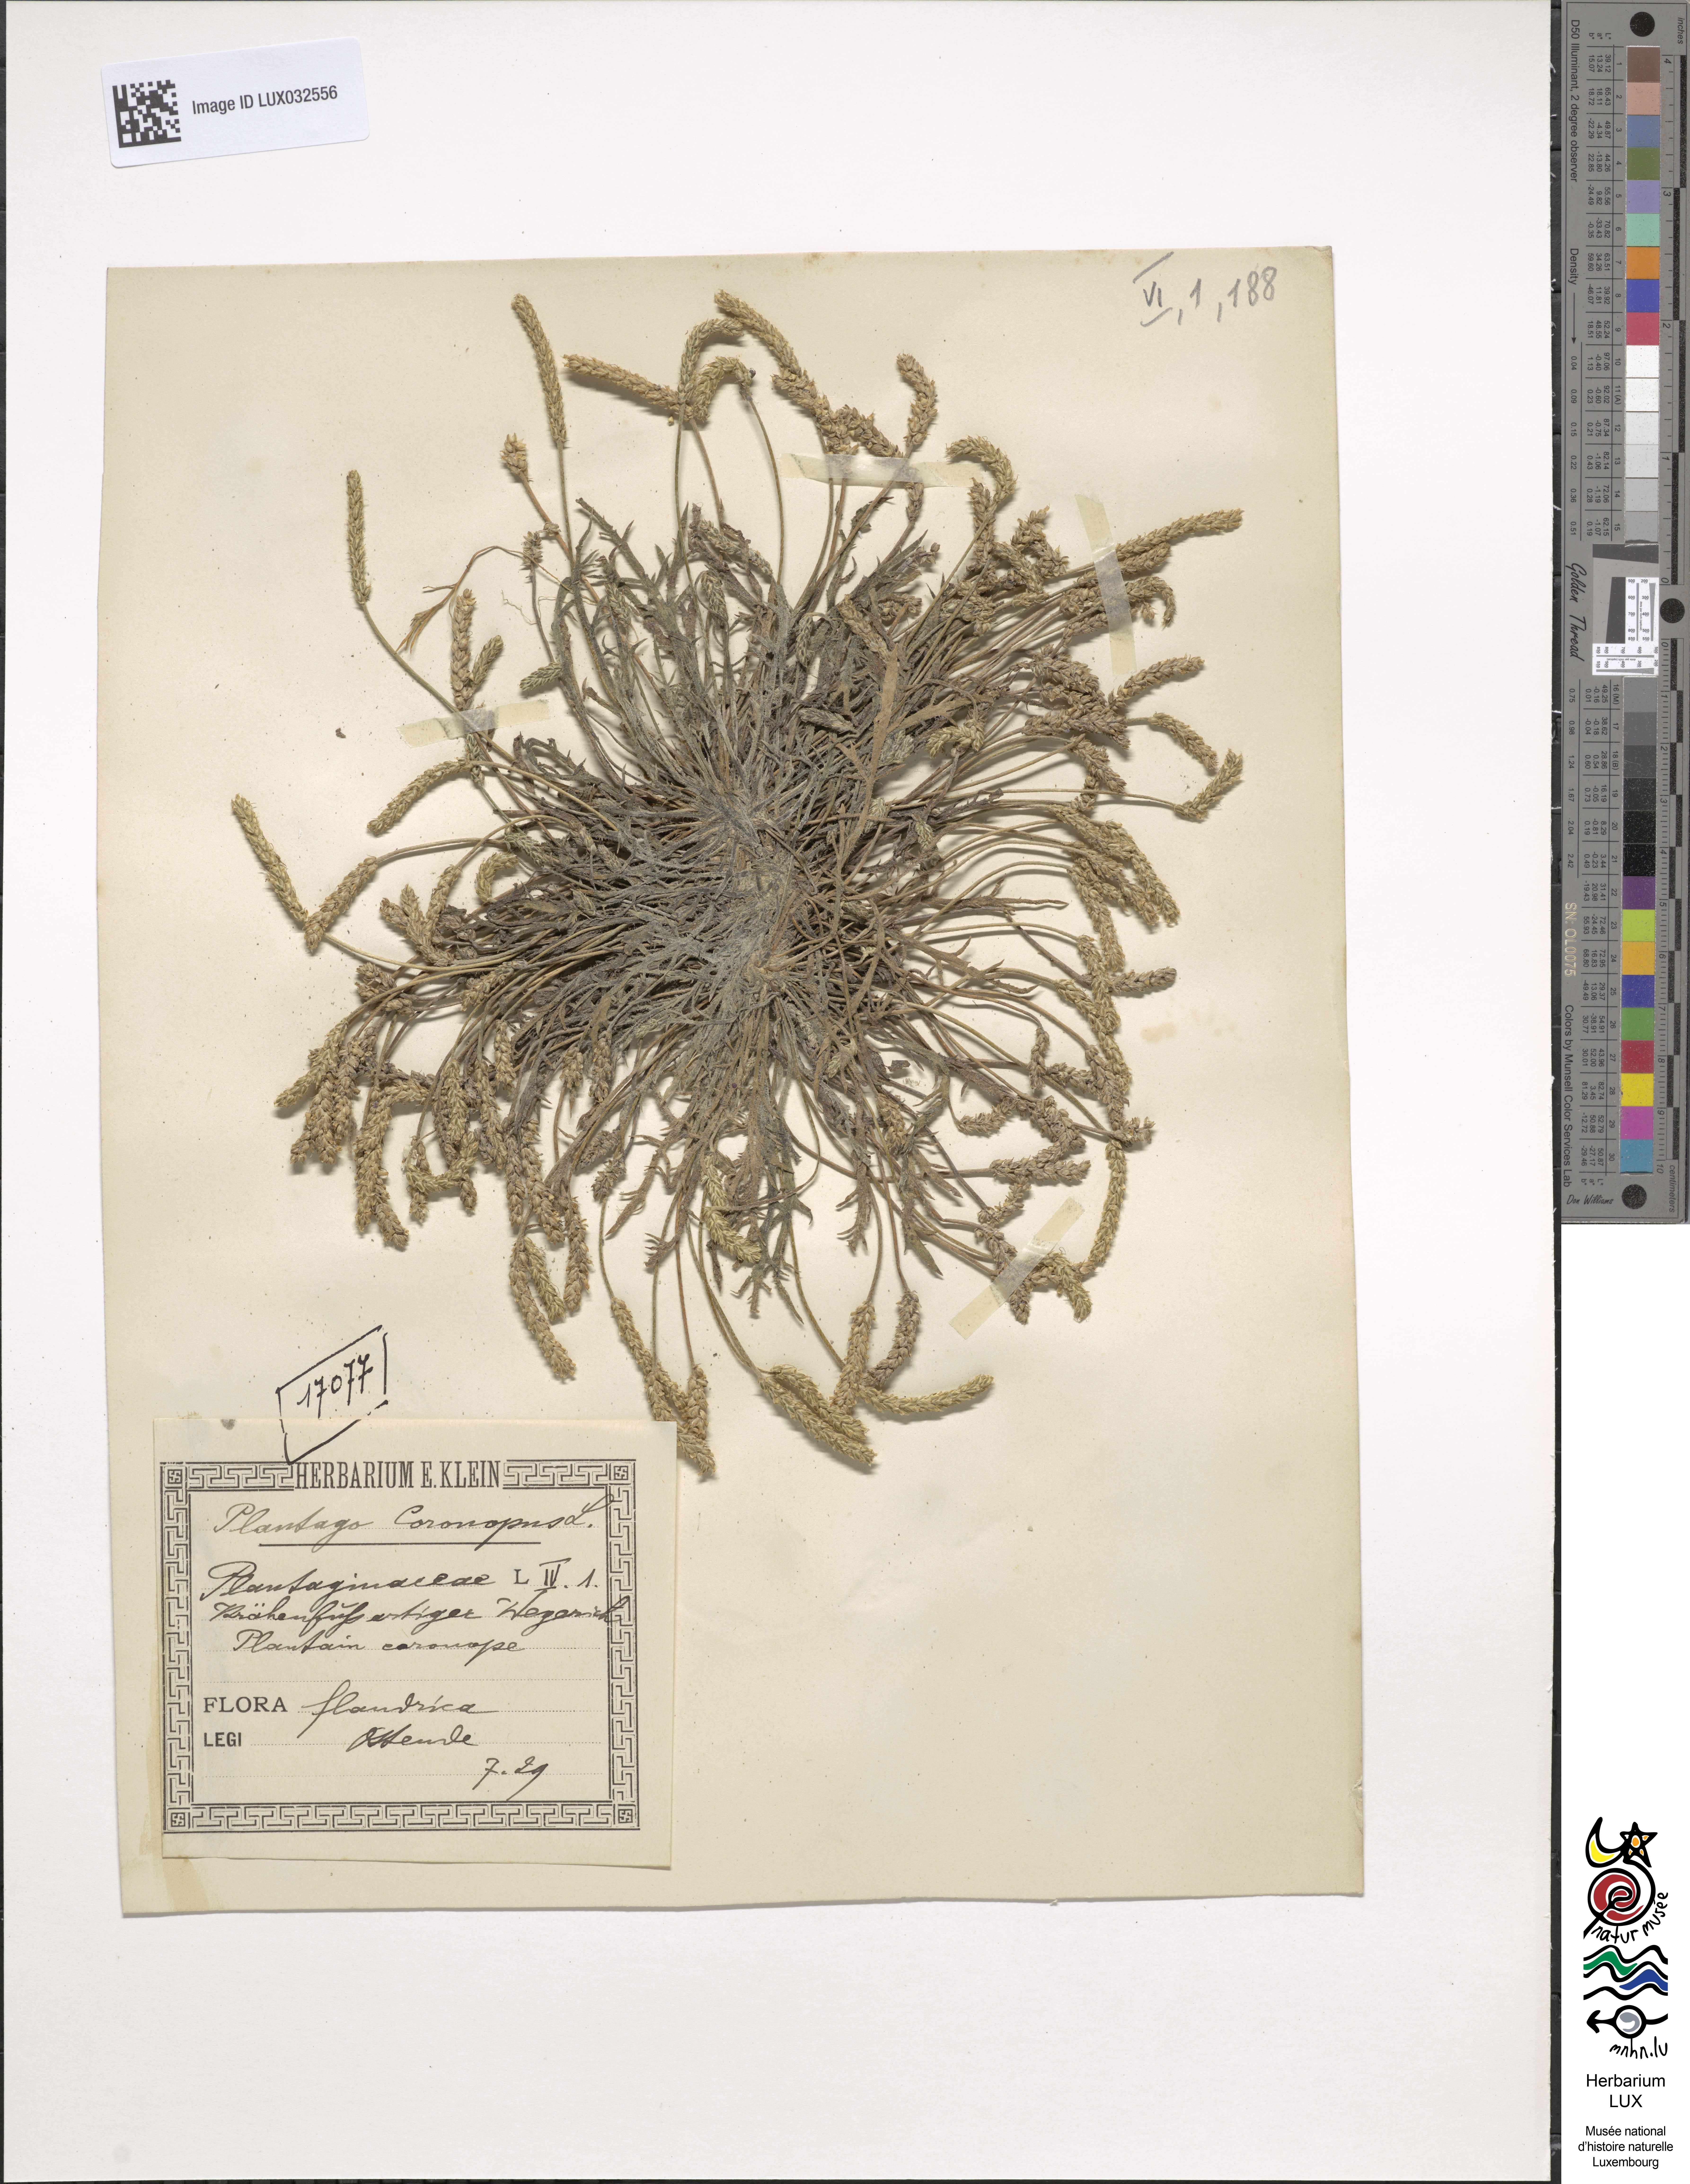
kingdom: Plantae
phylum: Tracheophyta
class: Magnoliopsida
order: Lamiales
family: Plantaginaceae
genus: Plantago
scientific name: Plantago coronopus
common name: Buck's-horn plantain
